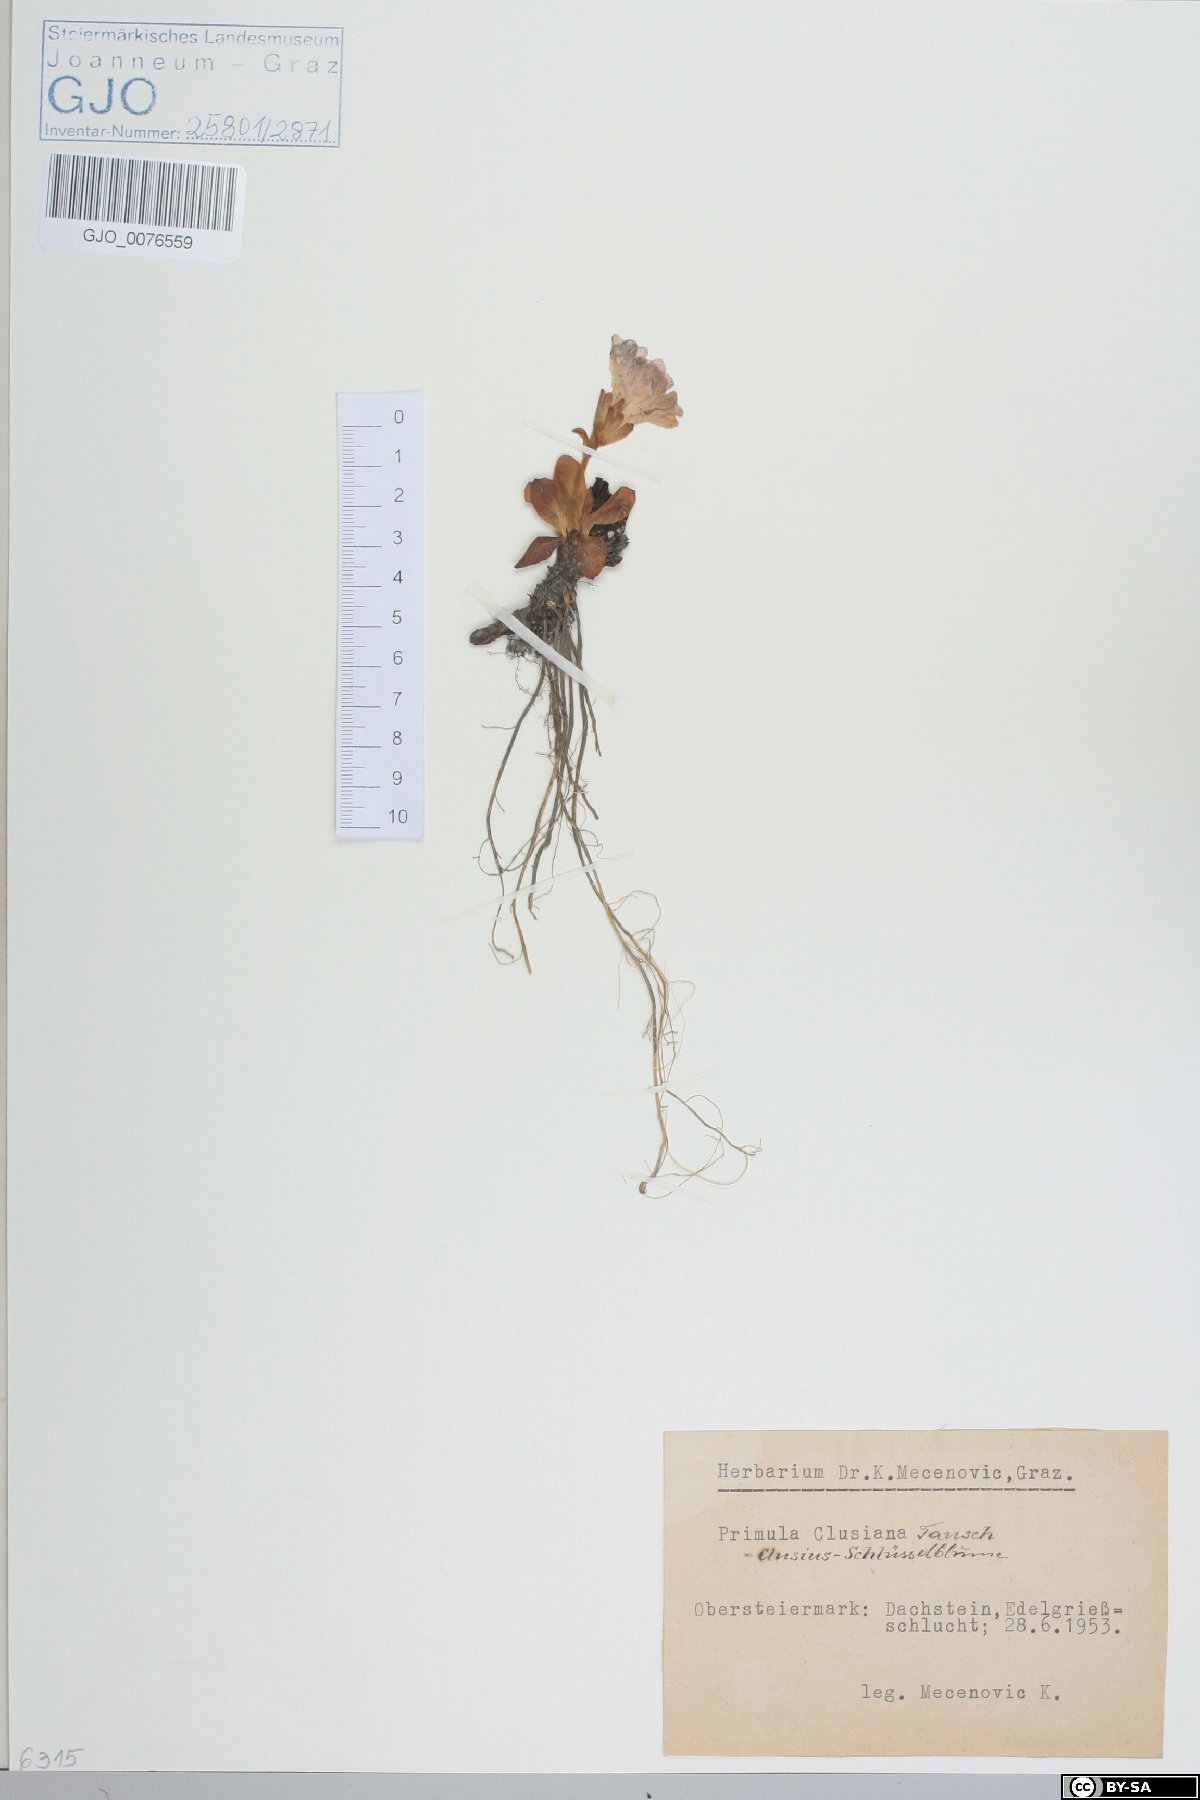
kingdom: Plantae
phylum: Tracheophyta
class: Magnoliopsida
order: Ericales
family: Primulaceae
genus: Primula
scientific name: Primula clusiana
